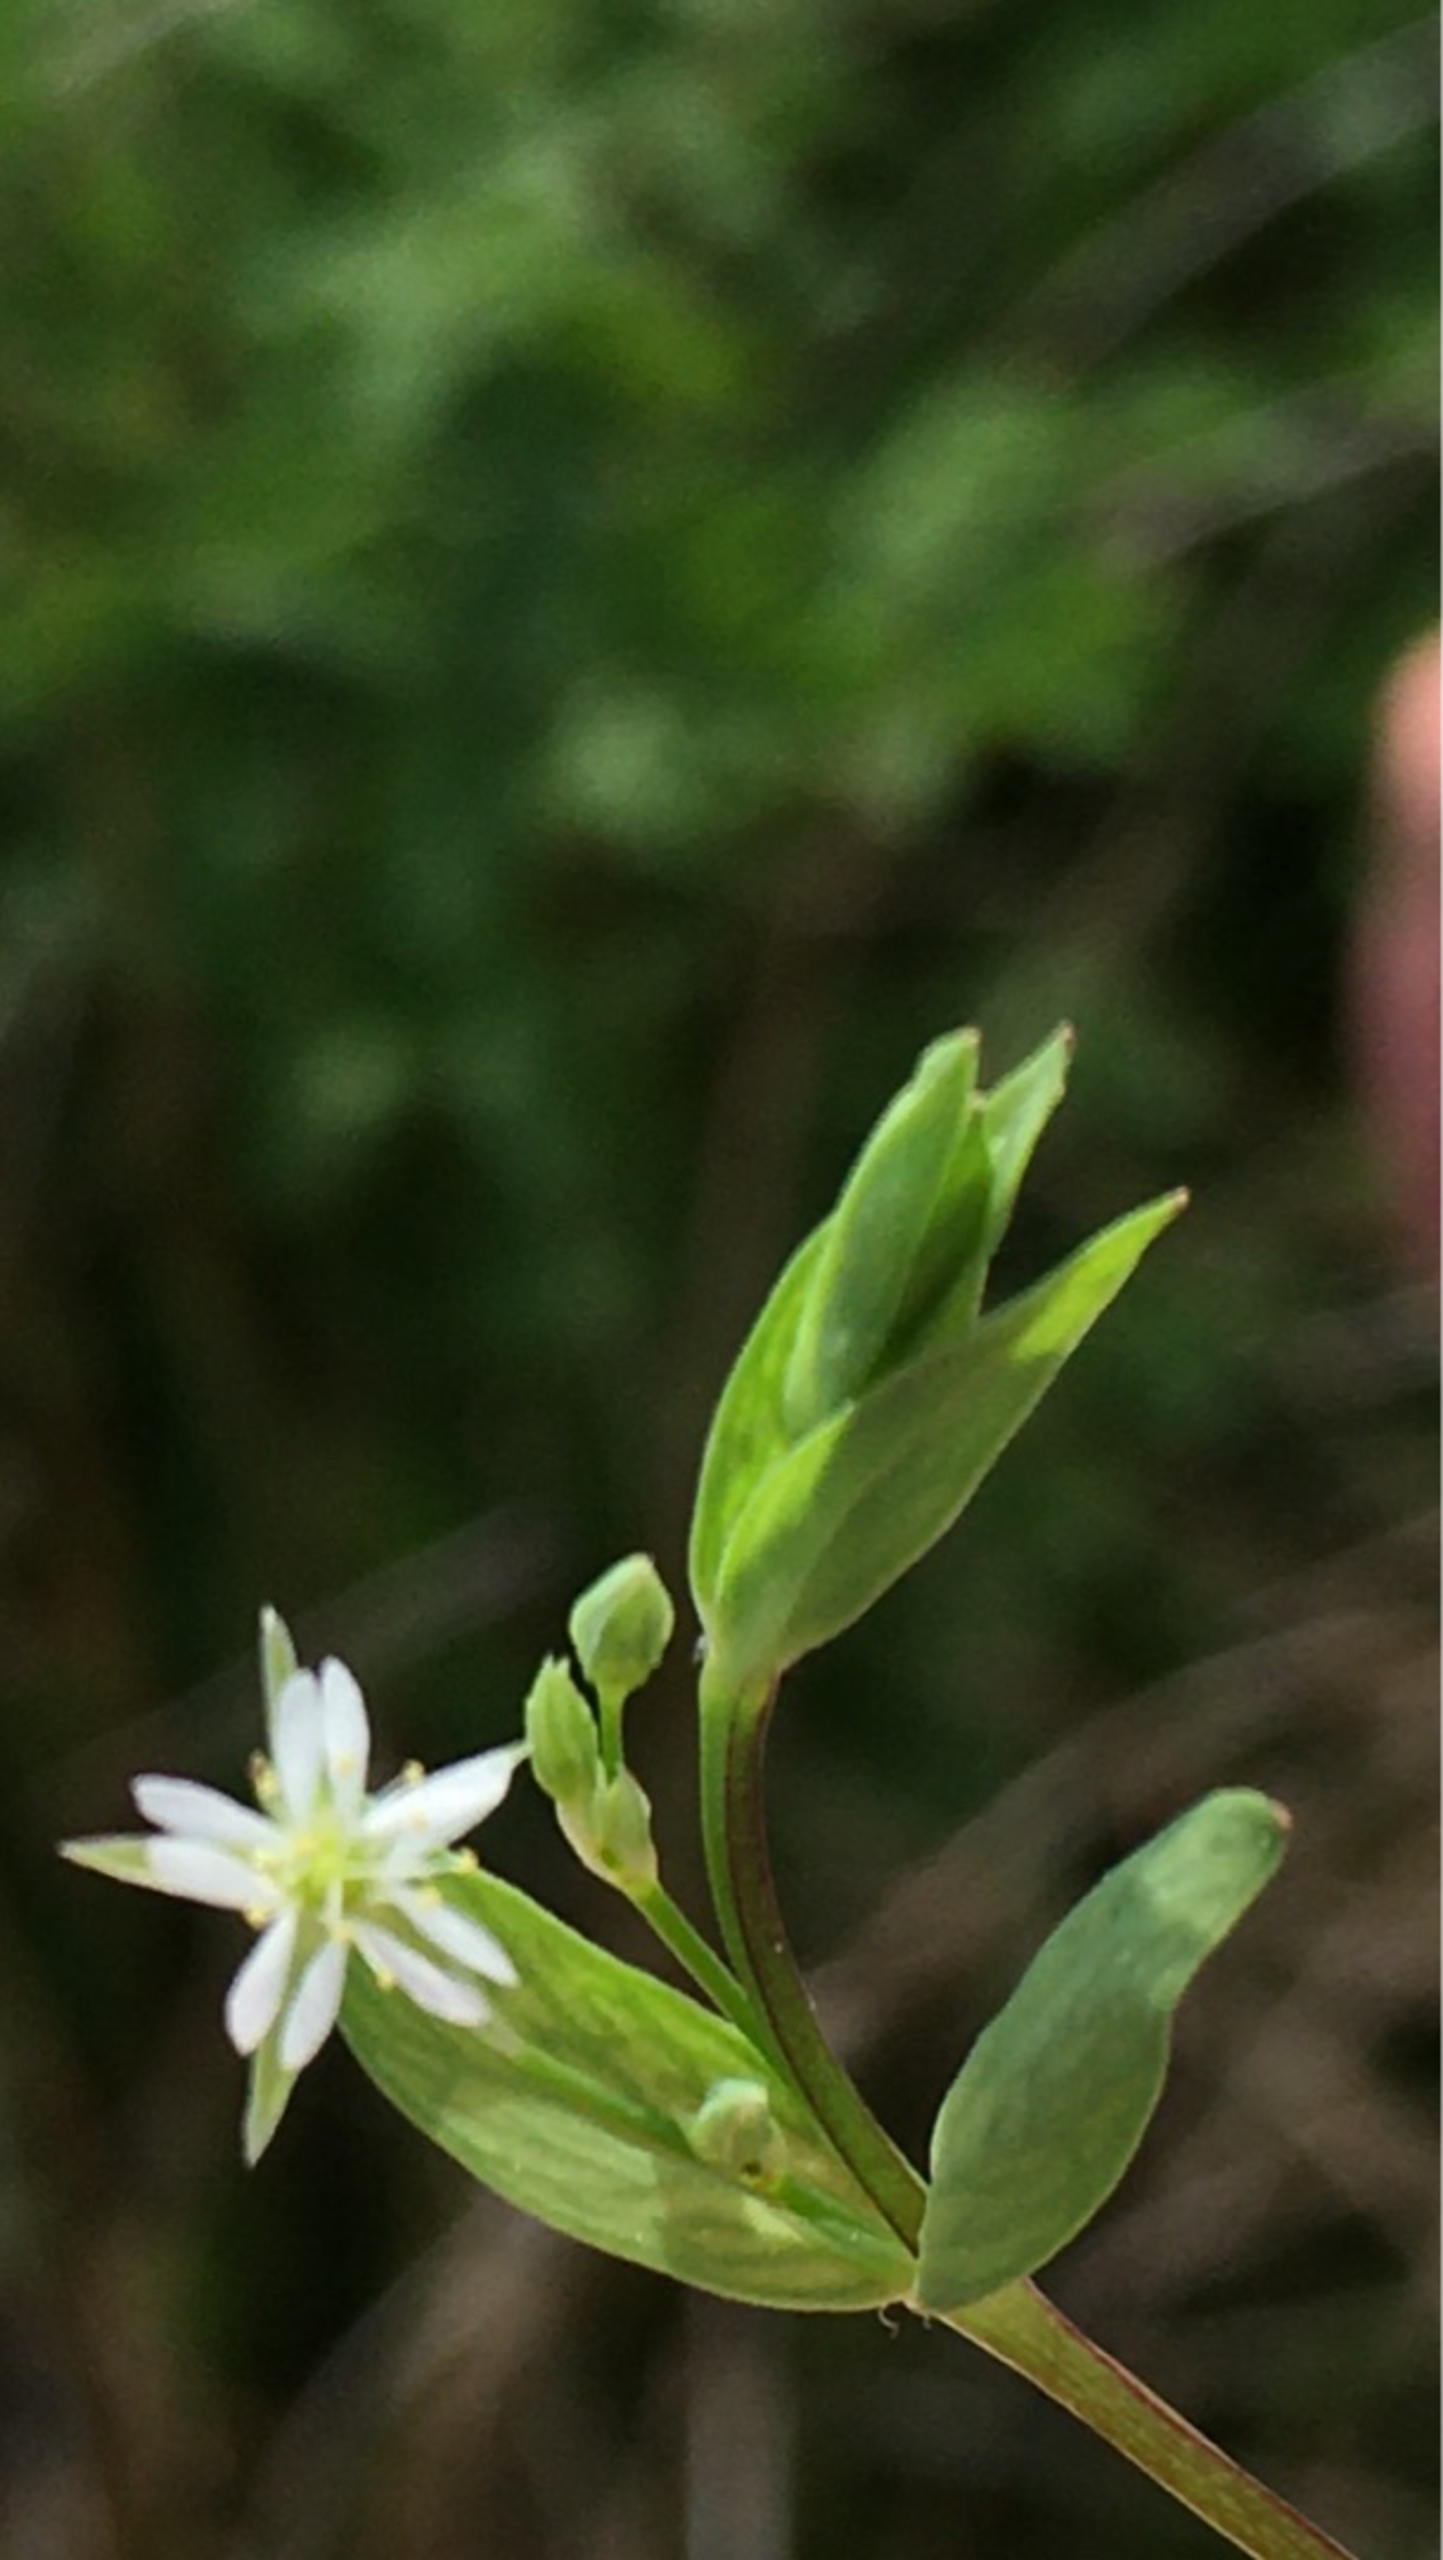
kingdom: Plantae
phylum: Tracheophyta
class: Magnoliopsida
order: Caryophyllales
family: Caryophyllaceae
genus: Stellaria
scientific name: Stellaria alsine
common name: Sump-fladstjerne
